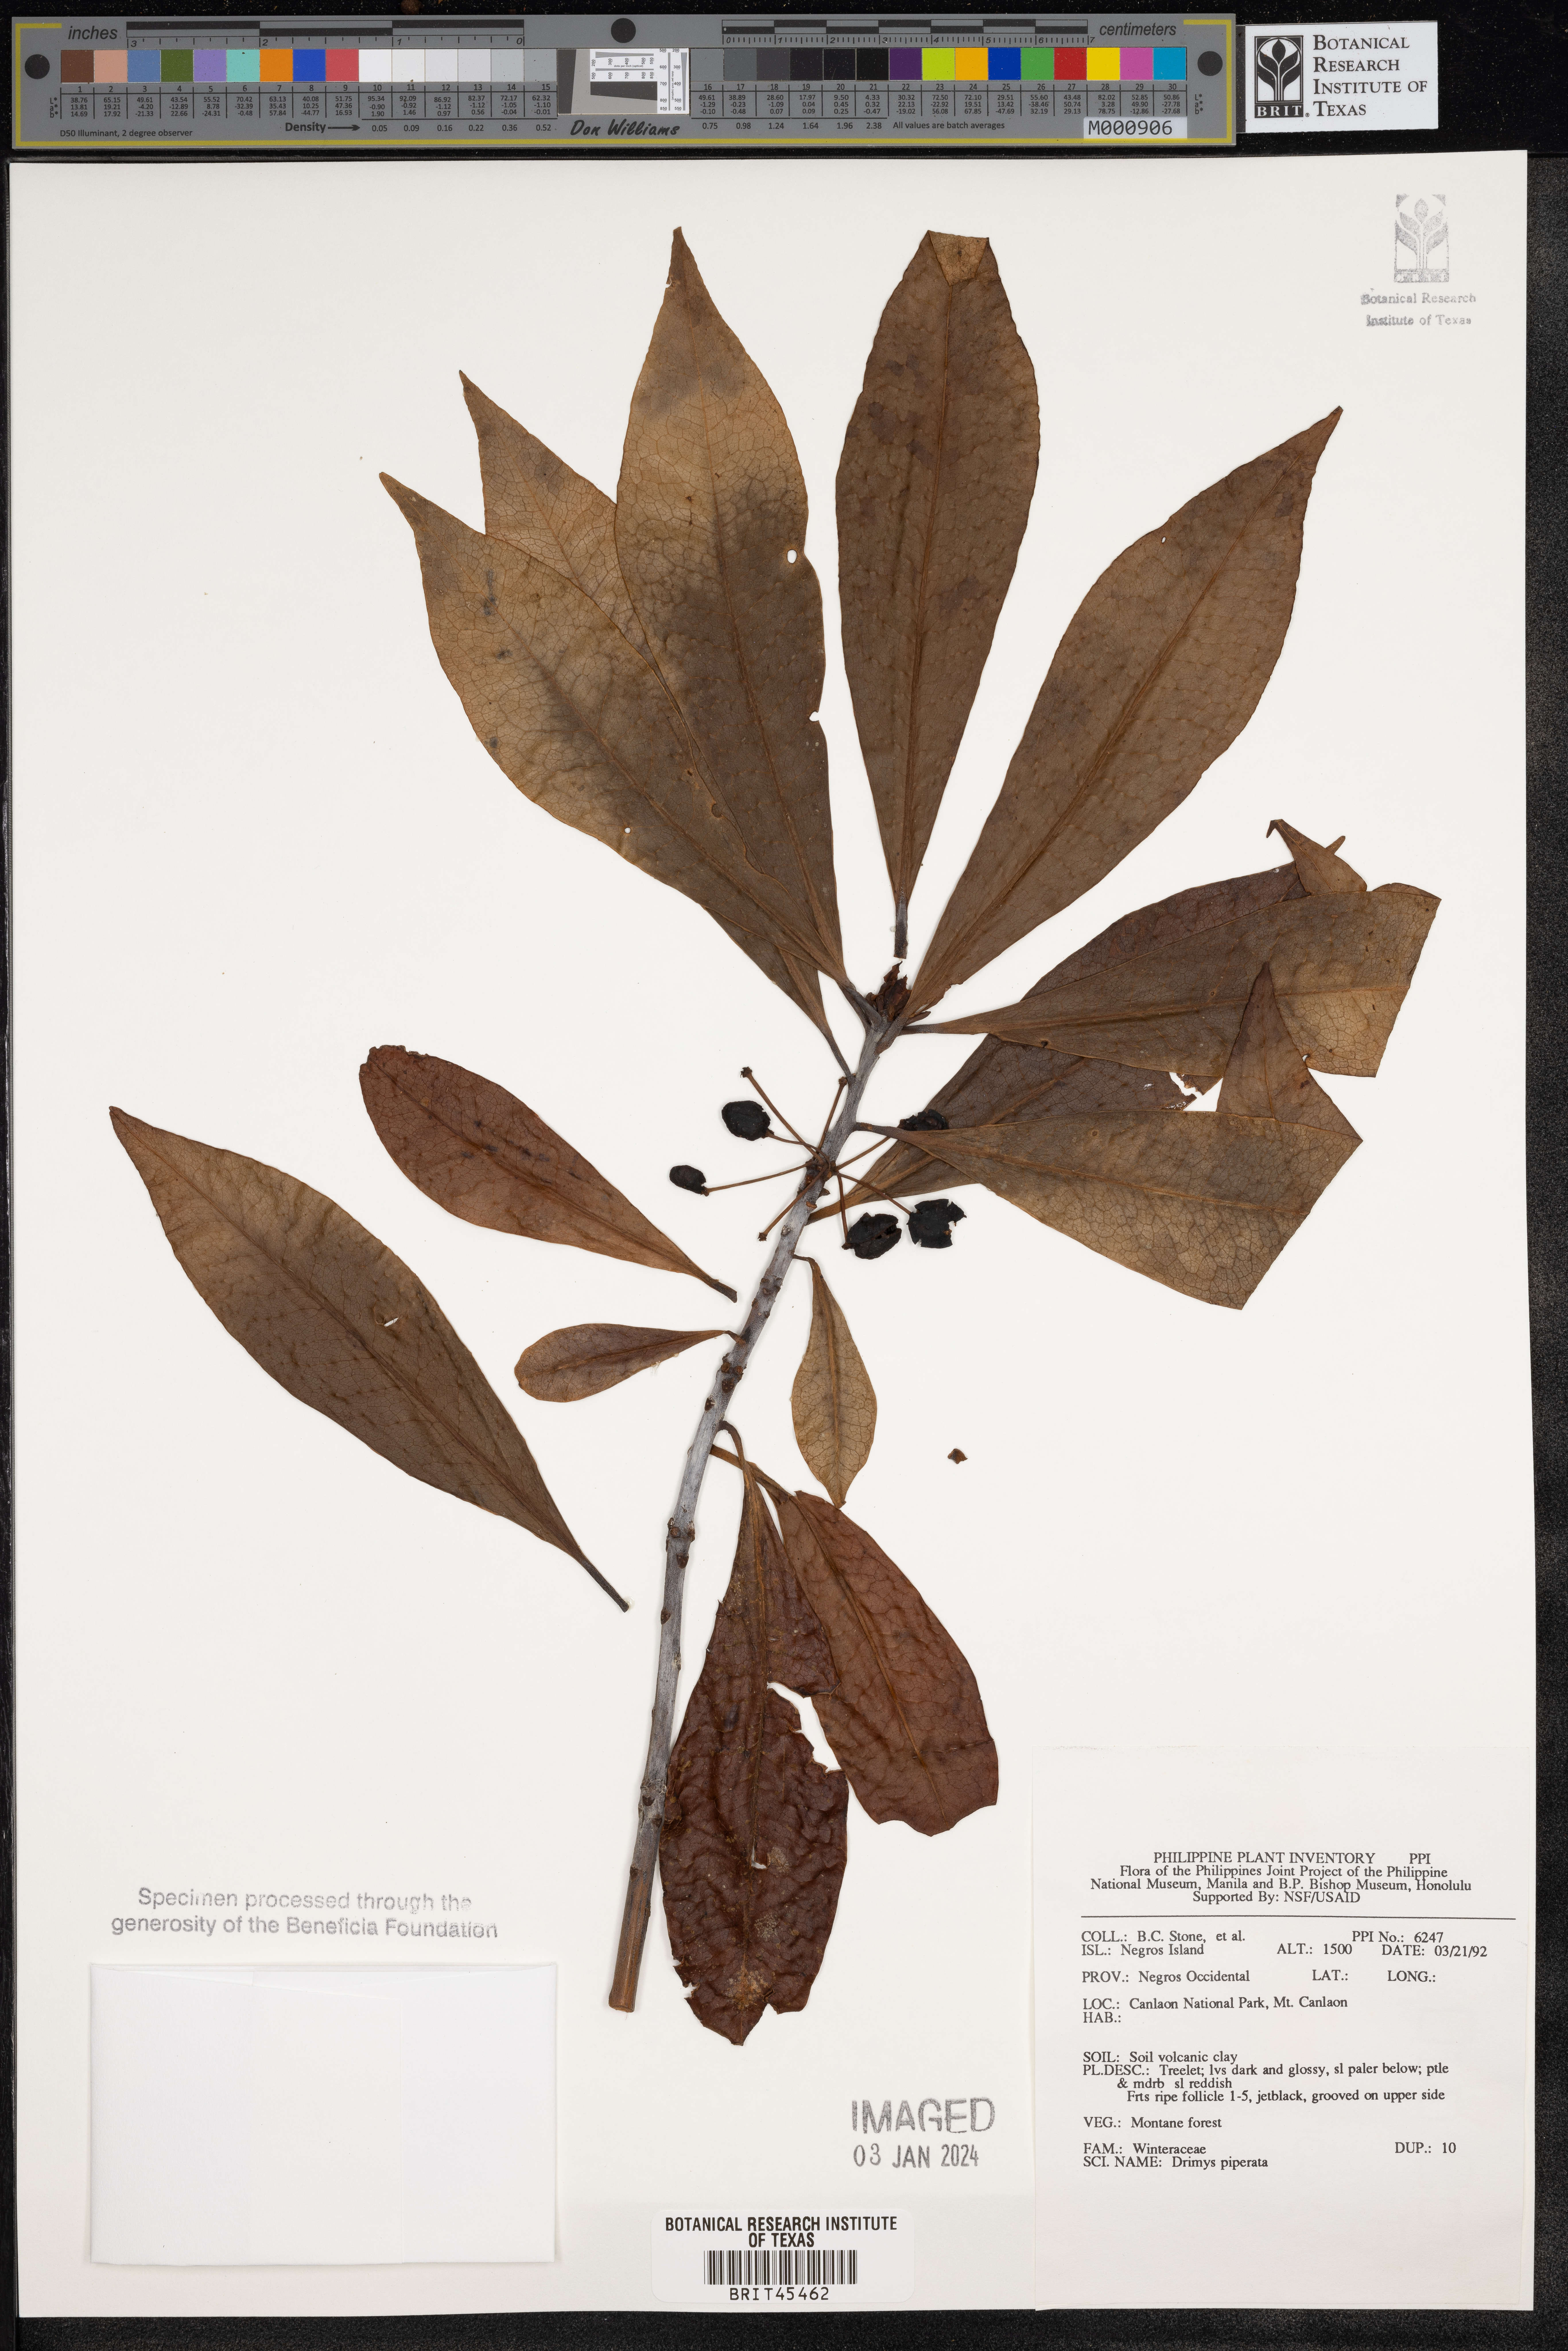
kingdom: Plantae
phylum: Tracheophyta
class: Magnoliopsida
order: Canellales
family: Winteraceae
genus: Drimys
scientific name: Drimys piperita
